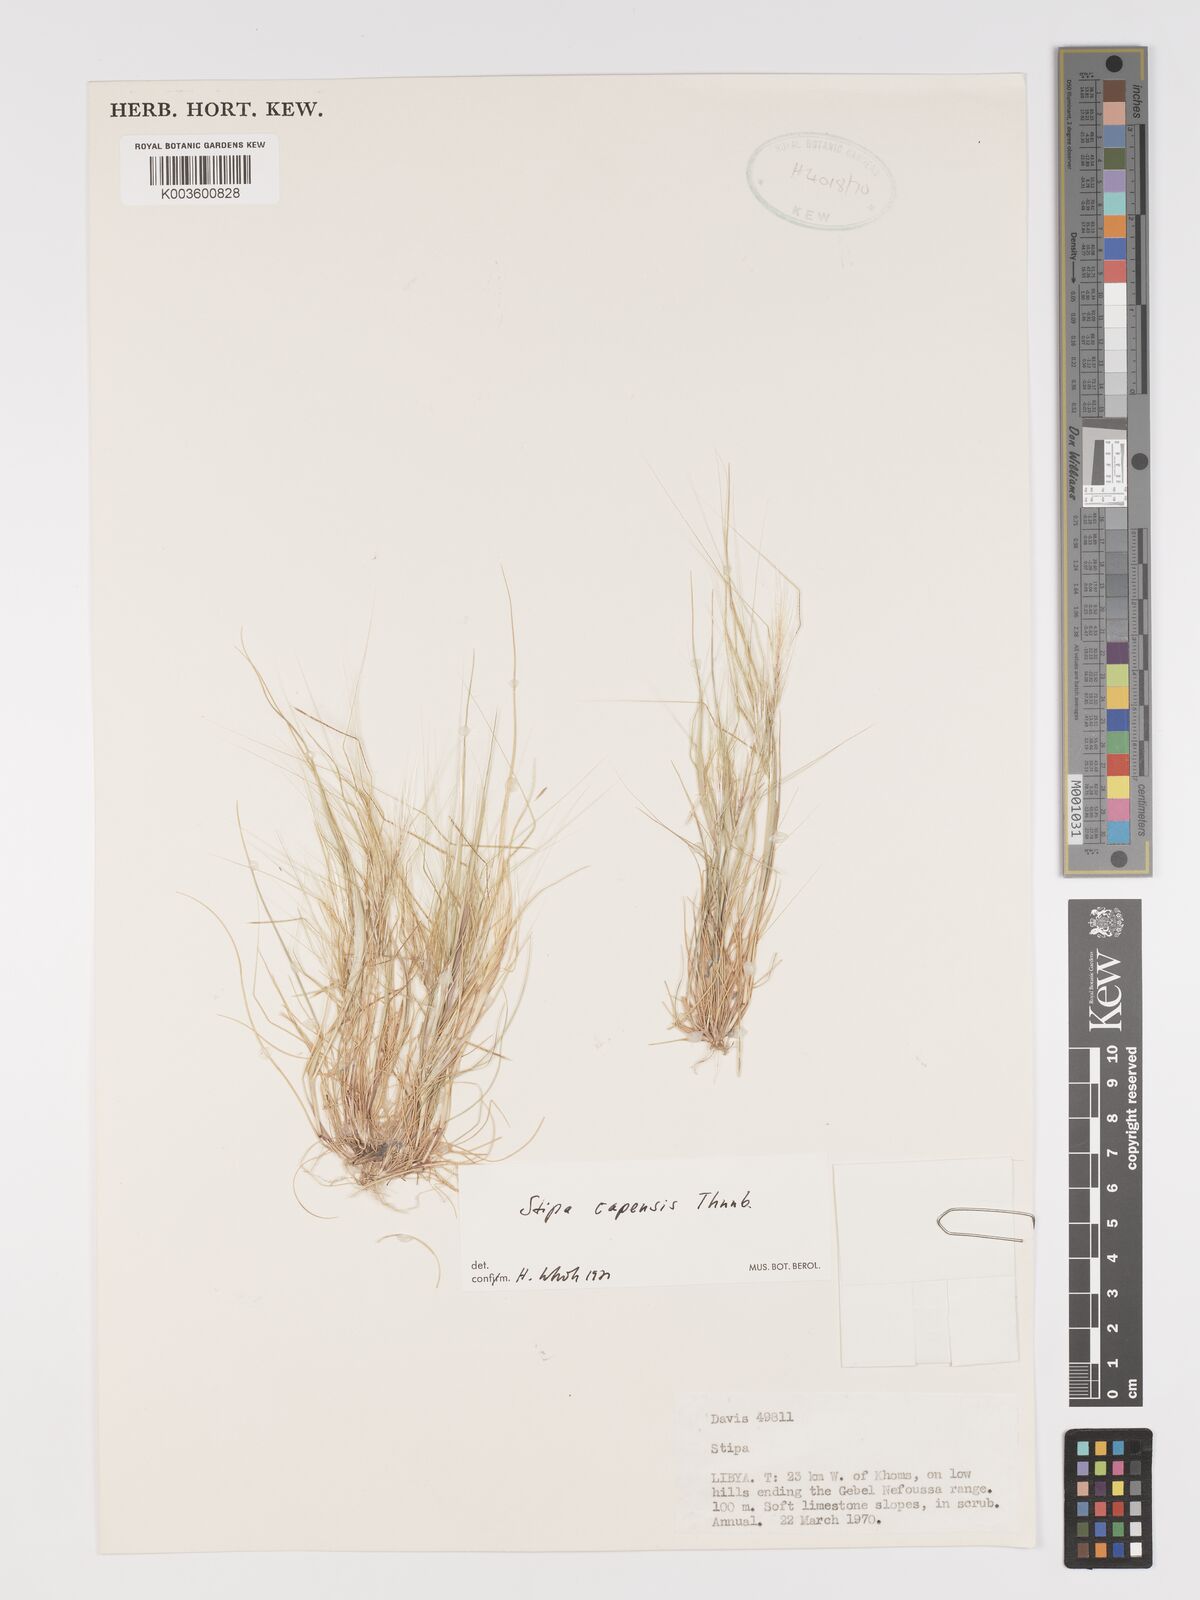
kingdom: Plantae
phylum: Tracheophyta
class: Liliopsida
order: Poales
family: Poaceae
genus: Stipellula
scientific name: Stipellula capensis
